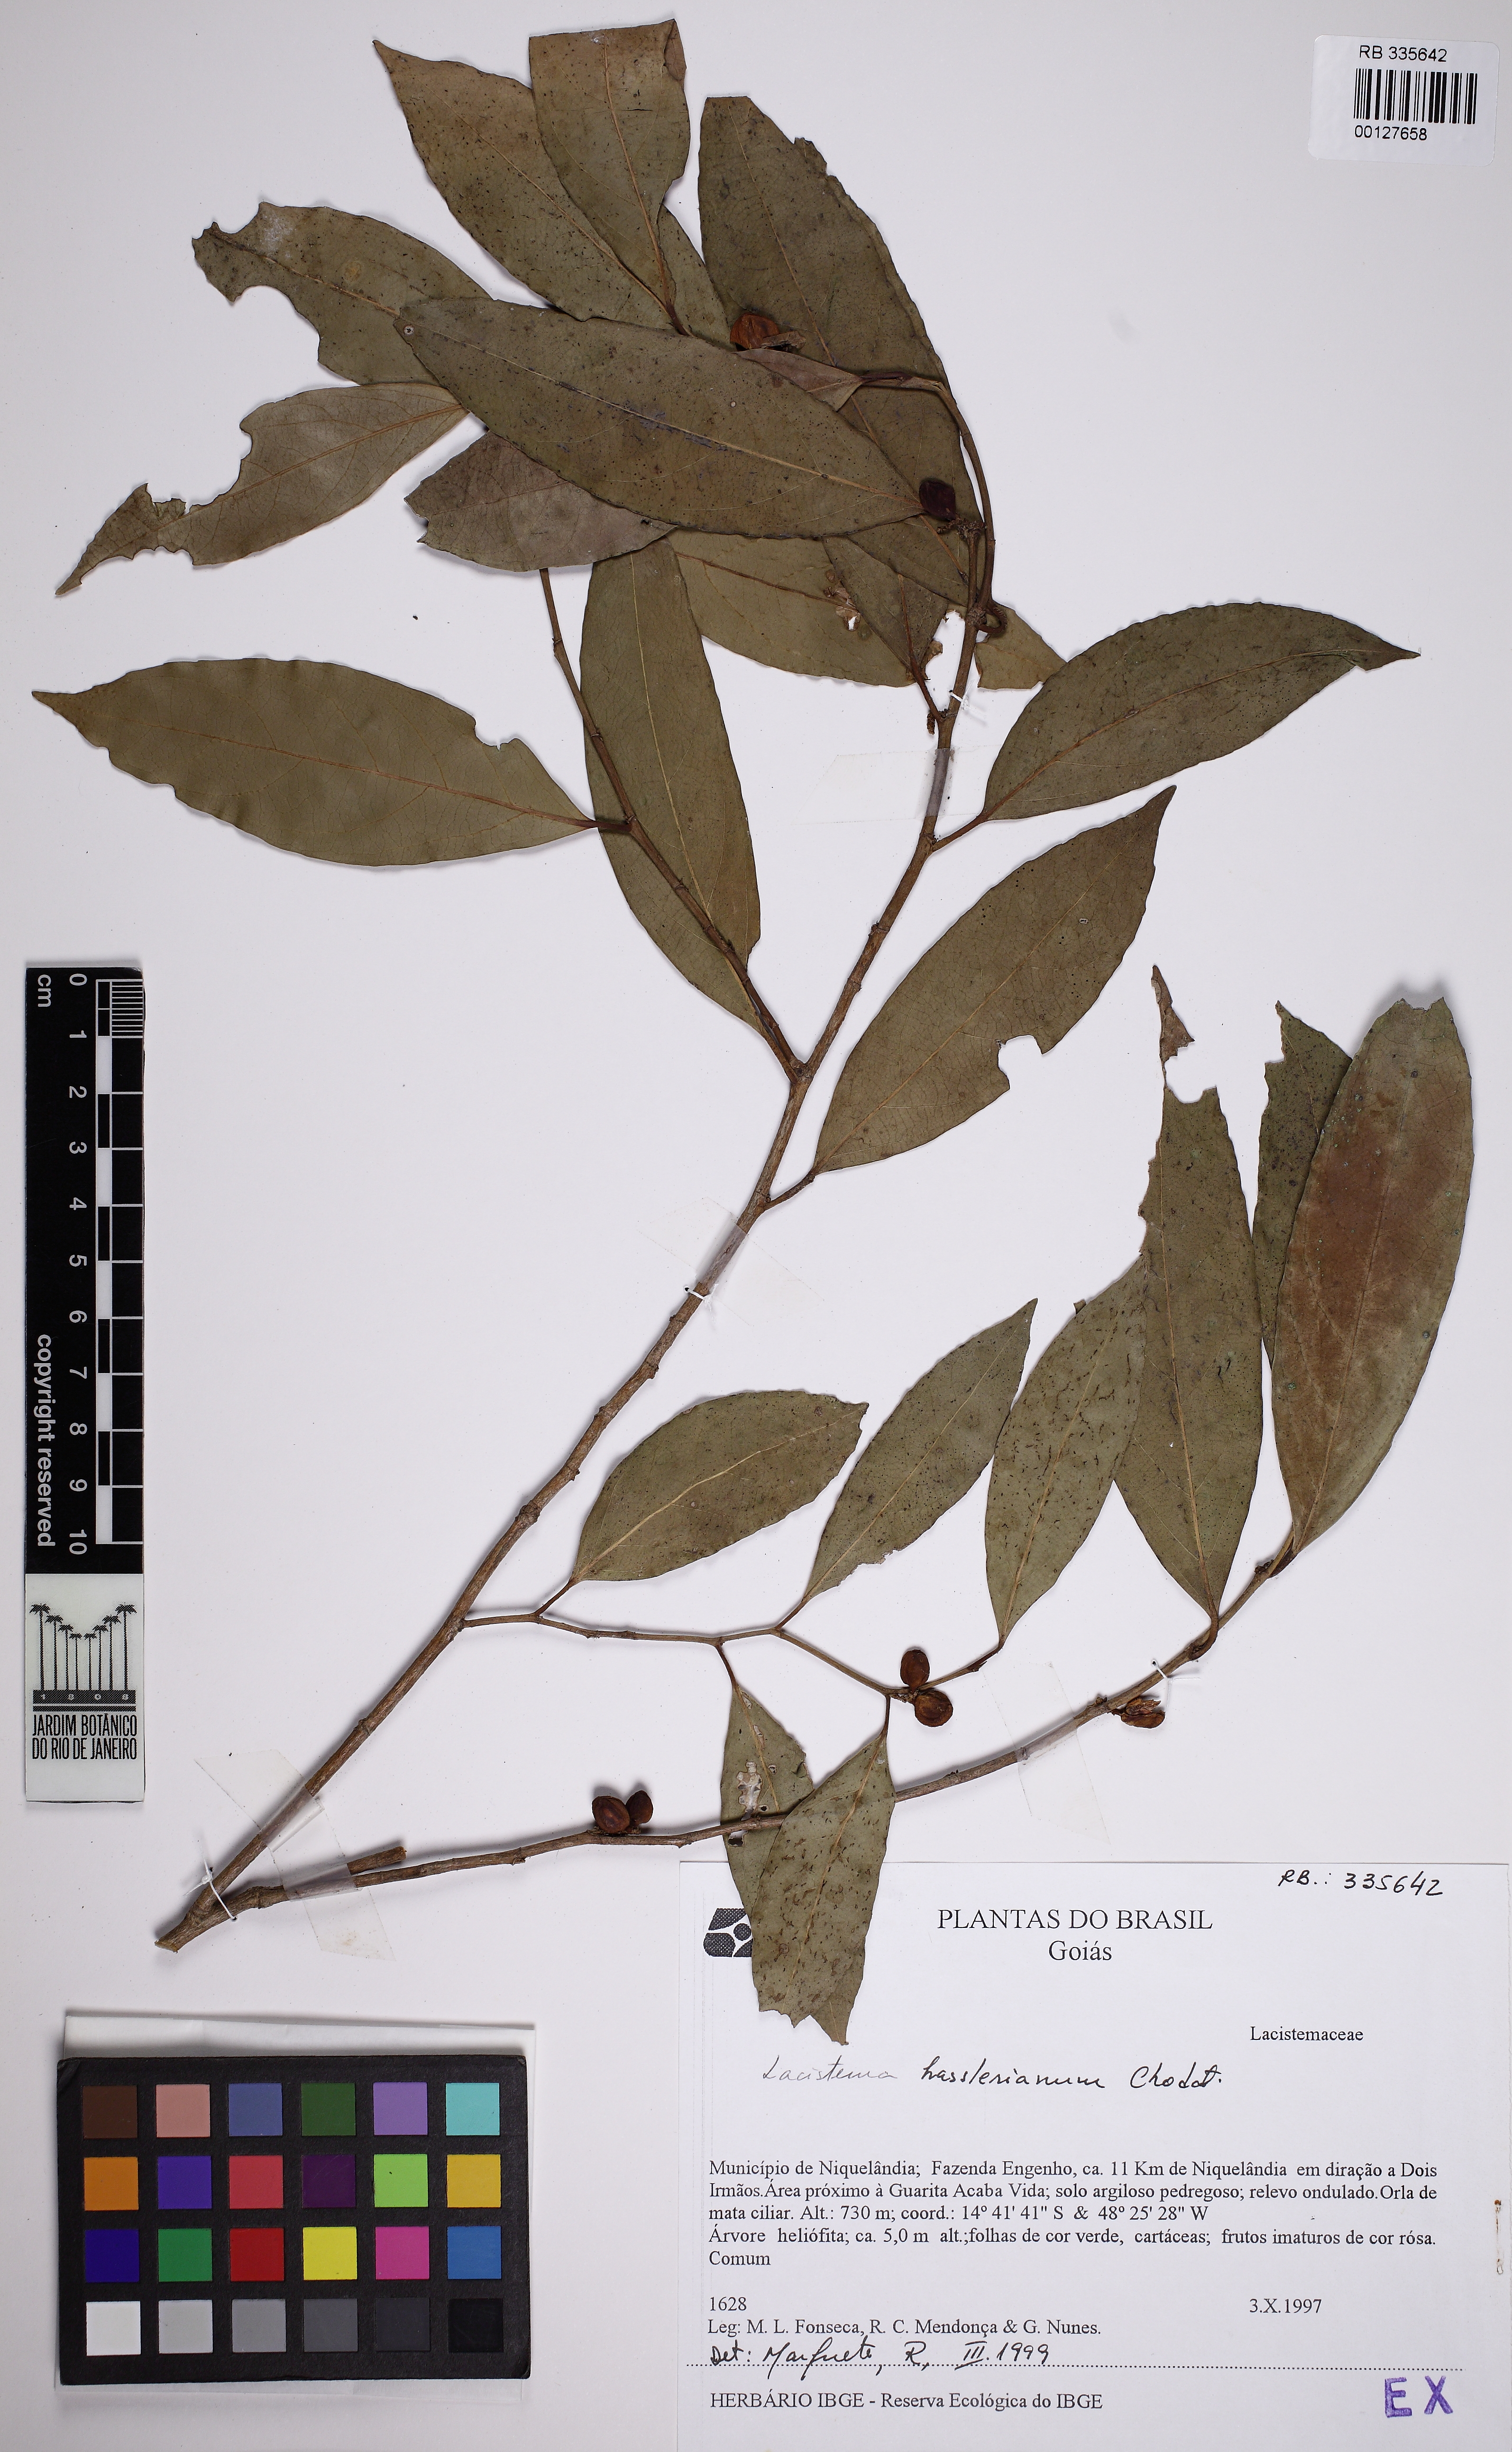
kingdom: Plantae
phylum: Tracheophyta
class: Magnoliopsida
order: Malpighiales
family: Lacistemataceae
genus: Lacistema
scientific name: Lacistema hasslerianum
